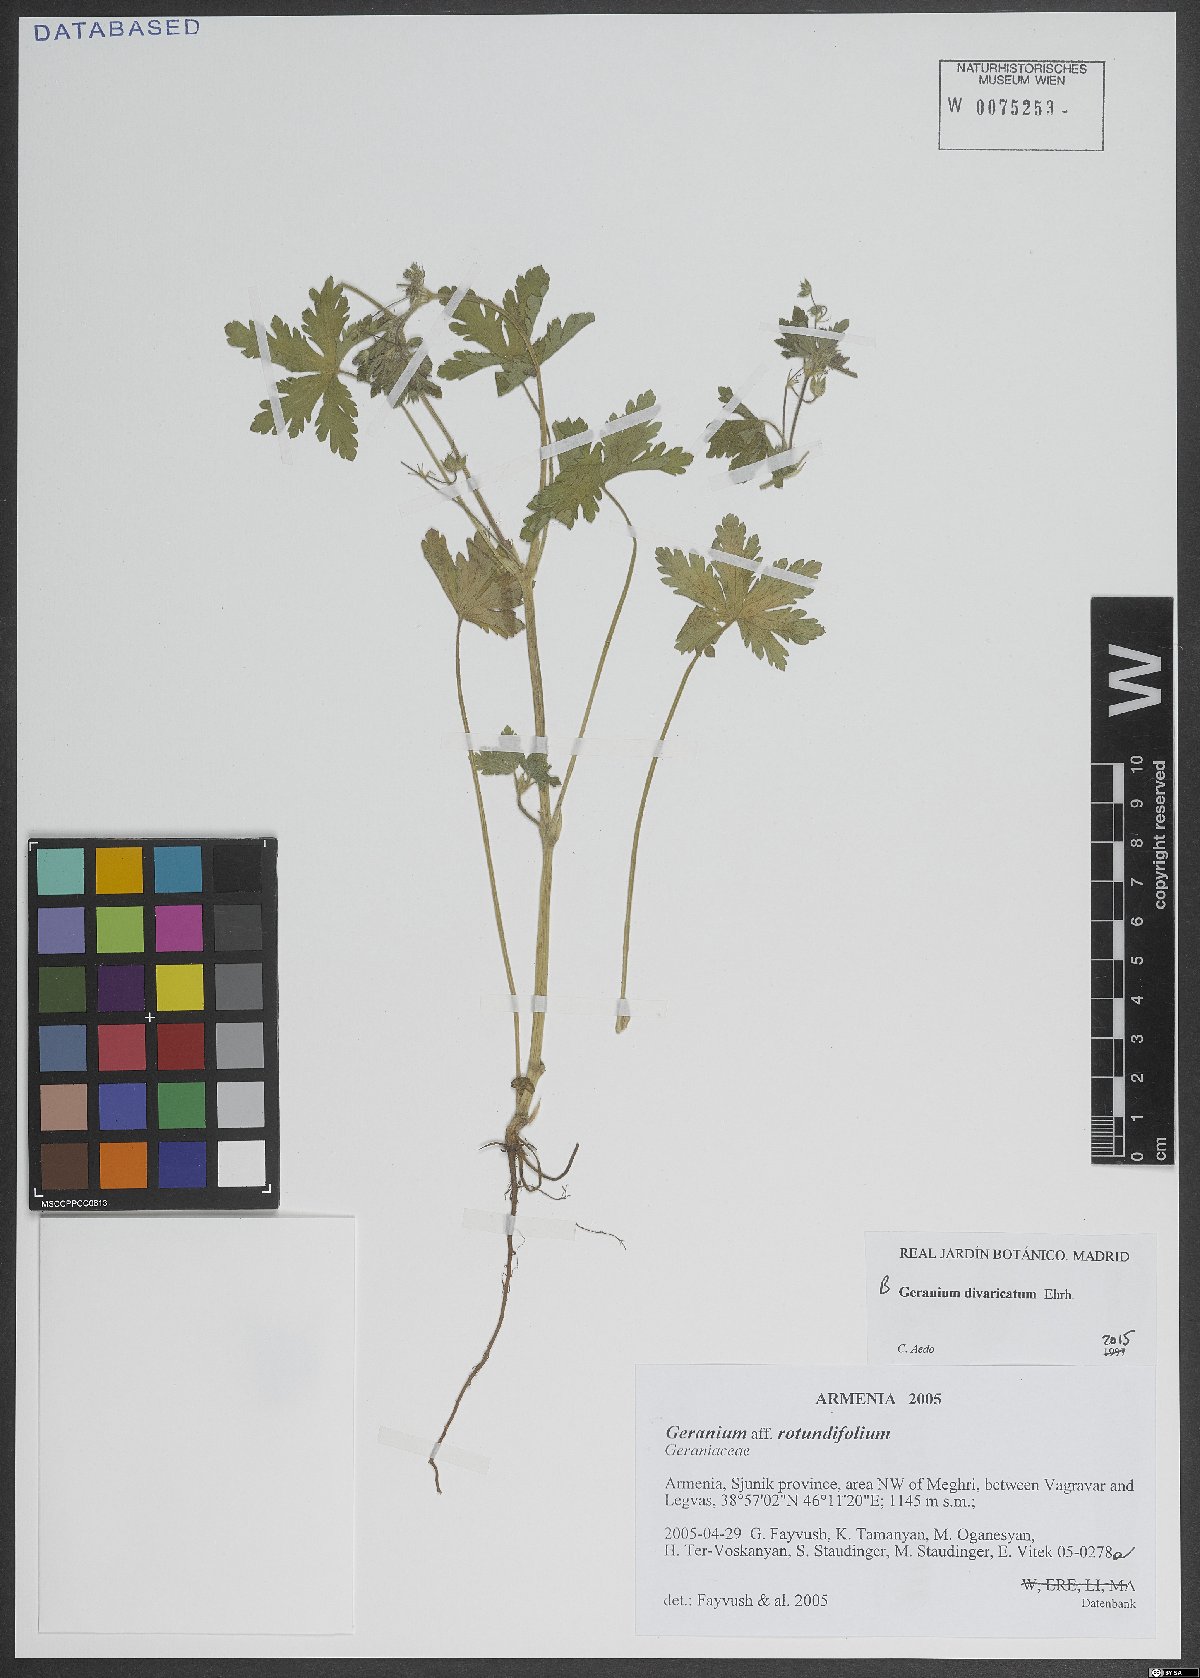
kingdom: Plantae
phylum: Tracheophyta
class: Magnoliopsida
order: Geraniales
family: Geraniaceae
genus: Geranium
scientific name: Geranium divaricatum
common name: Spreading crane's-bill
